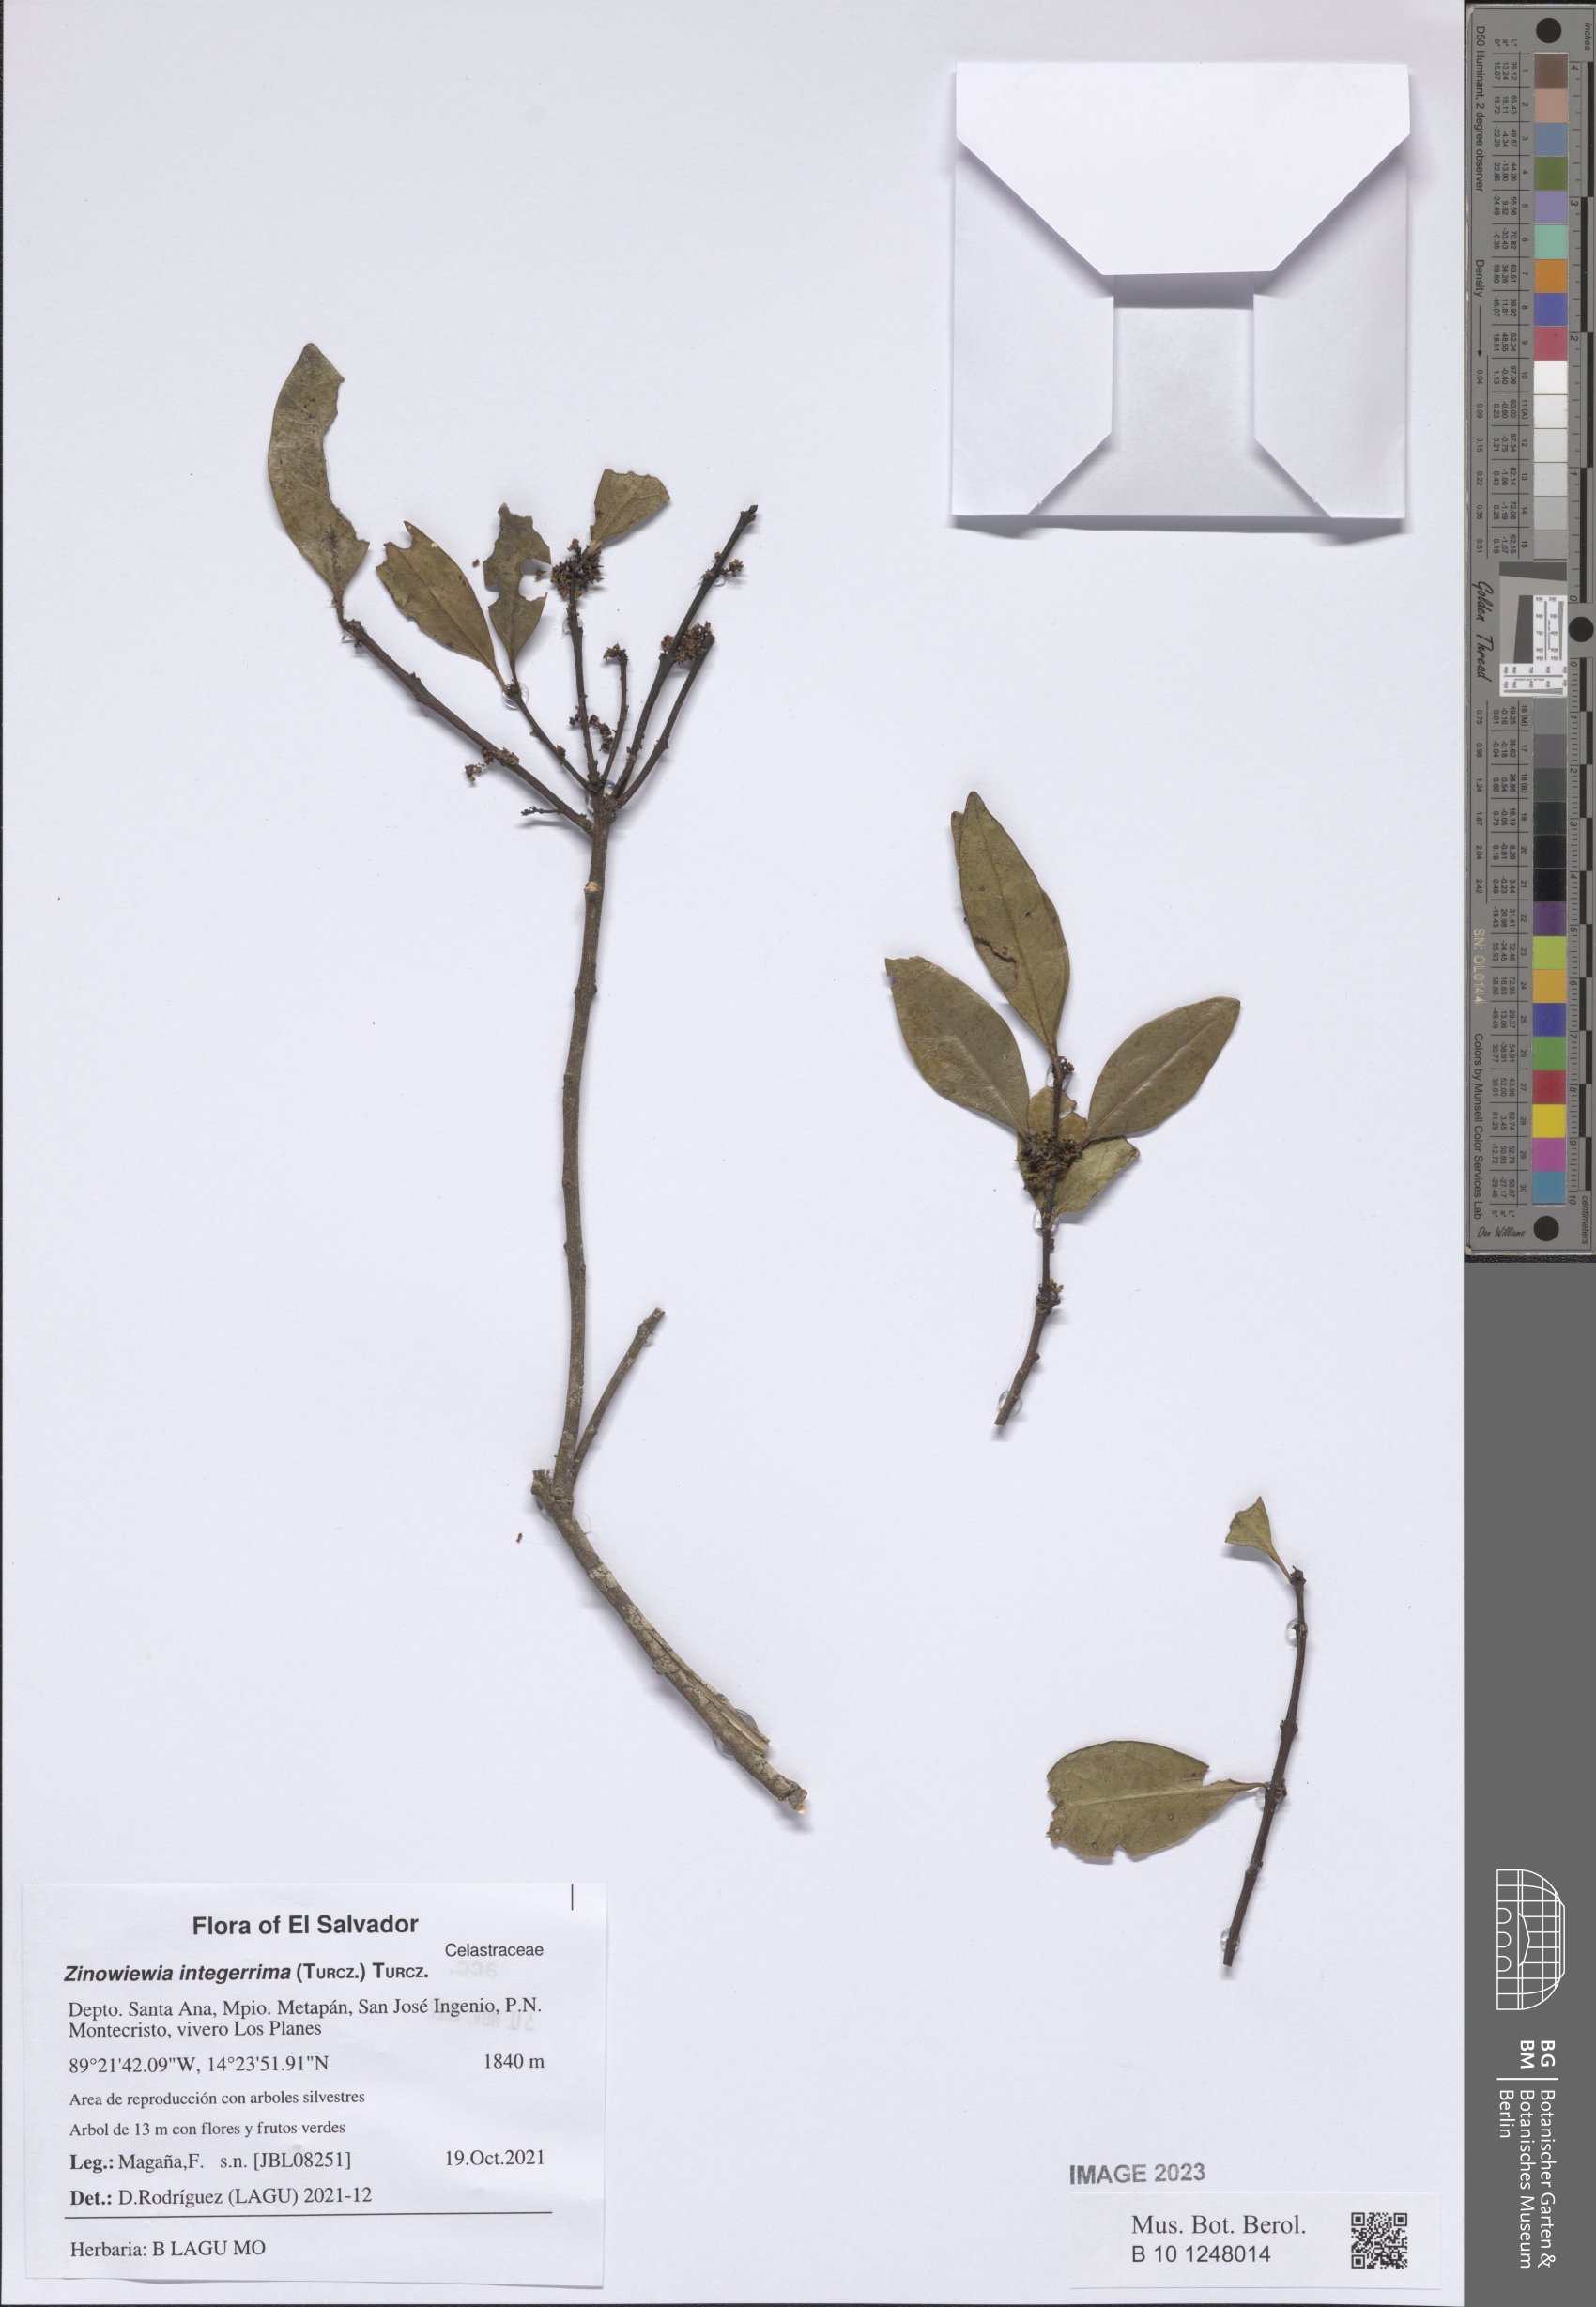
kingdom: Plantae
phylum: Tracheophyta
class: Magnoliopsida
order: Celastrales
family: Celastraceae
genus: Zinowiewia
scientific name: Zinowiewia integerrima
